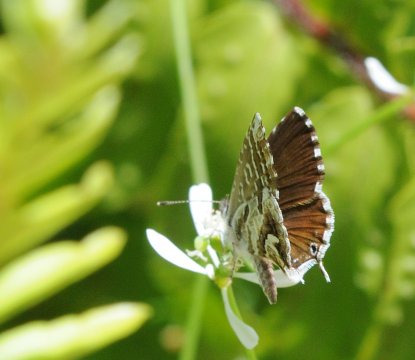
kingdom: Animalia
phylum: Arthropoda
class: Insecta
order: Lepidoptera
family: Lycaenidae
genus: Cacyreus
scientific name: Cacyreus marshalli
